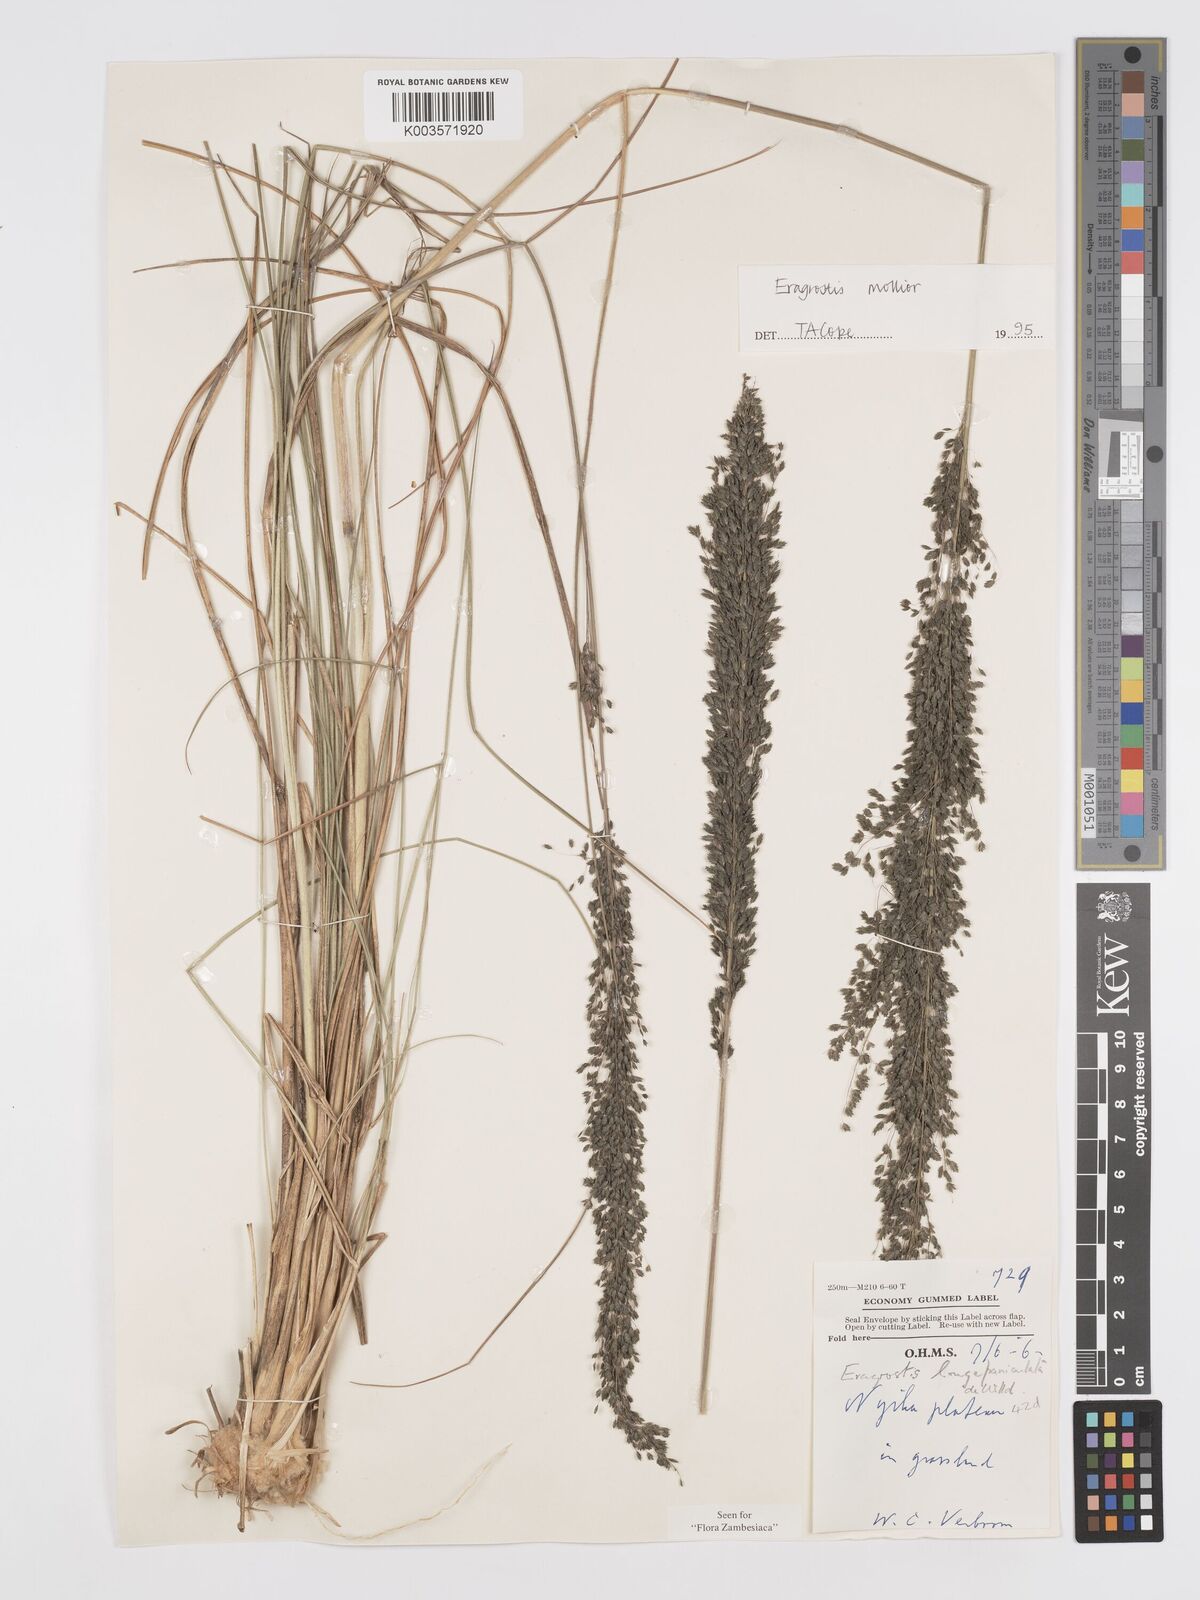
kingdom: Plantae
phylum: Tracheophyta
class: Liliopsida
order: Poales
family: Poaceae
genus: Eragrostis
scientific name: Eragrostis mollior
